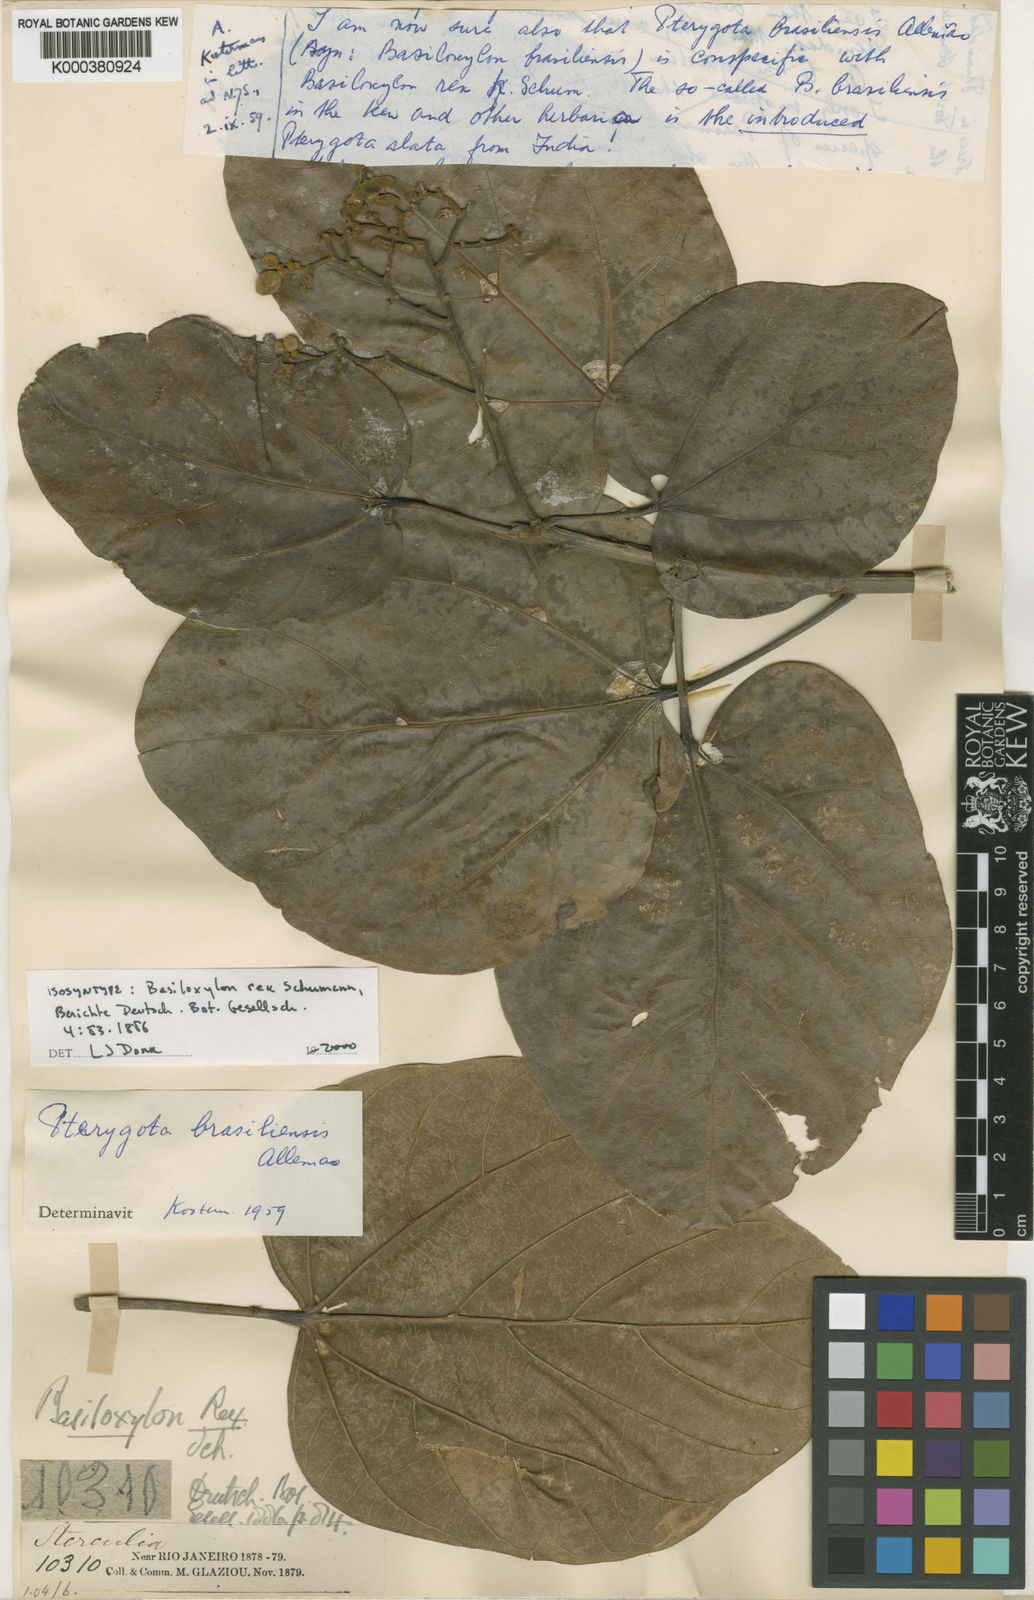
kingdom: Plantae
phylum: Tracheophyta
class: Magnoliopsida
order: Malvales
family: Malvaceae
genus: Pterygota
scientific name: Pterygota
